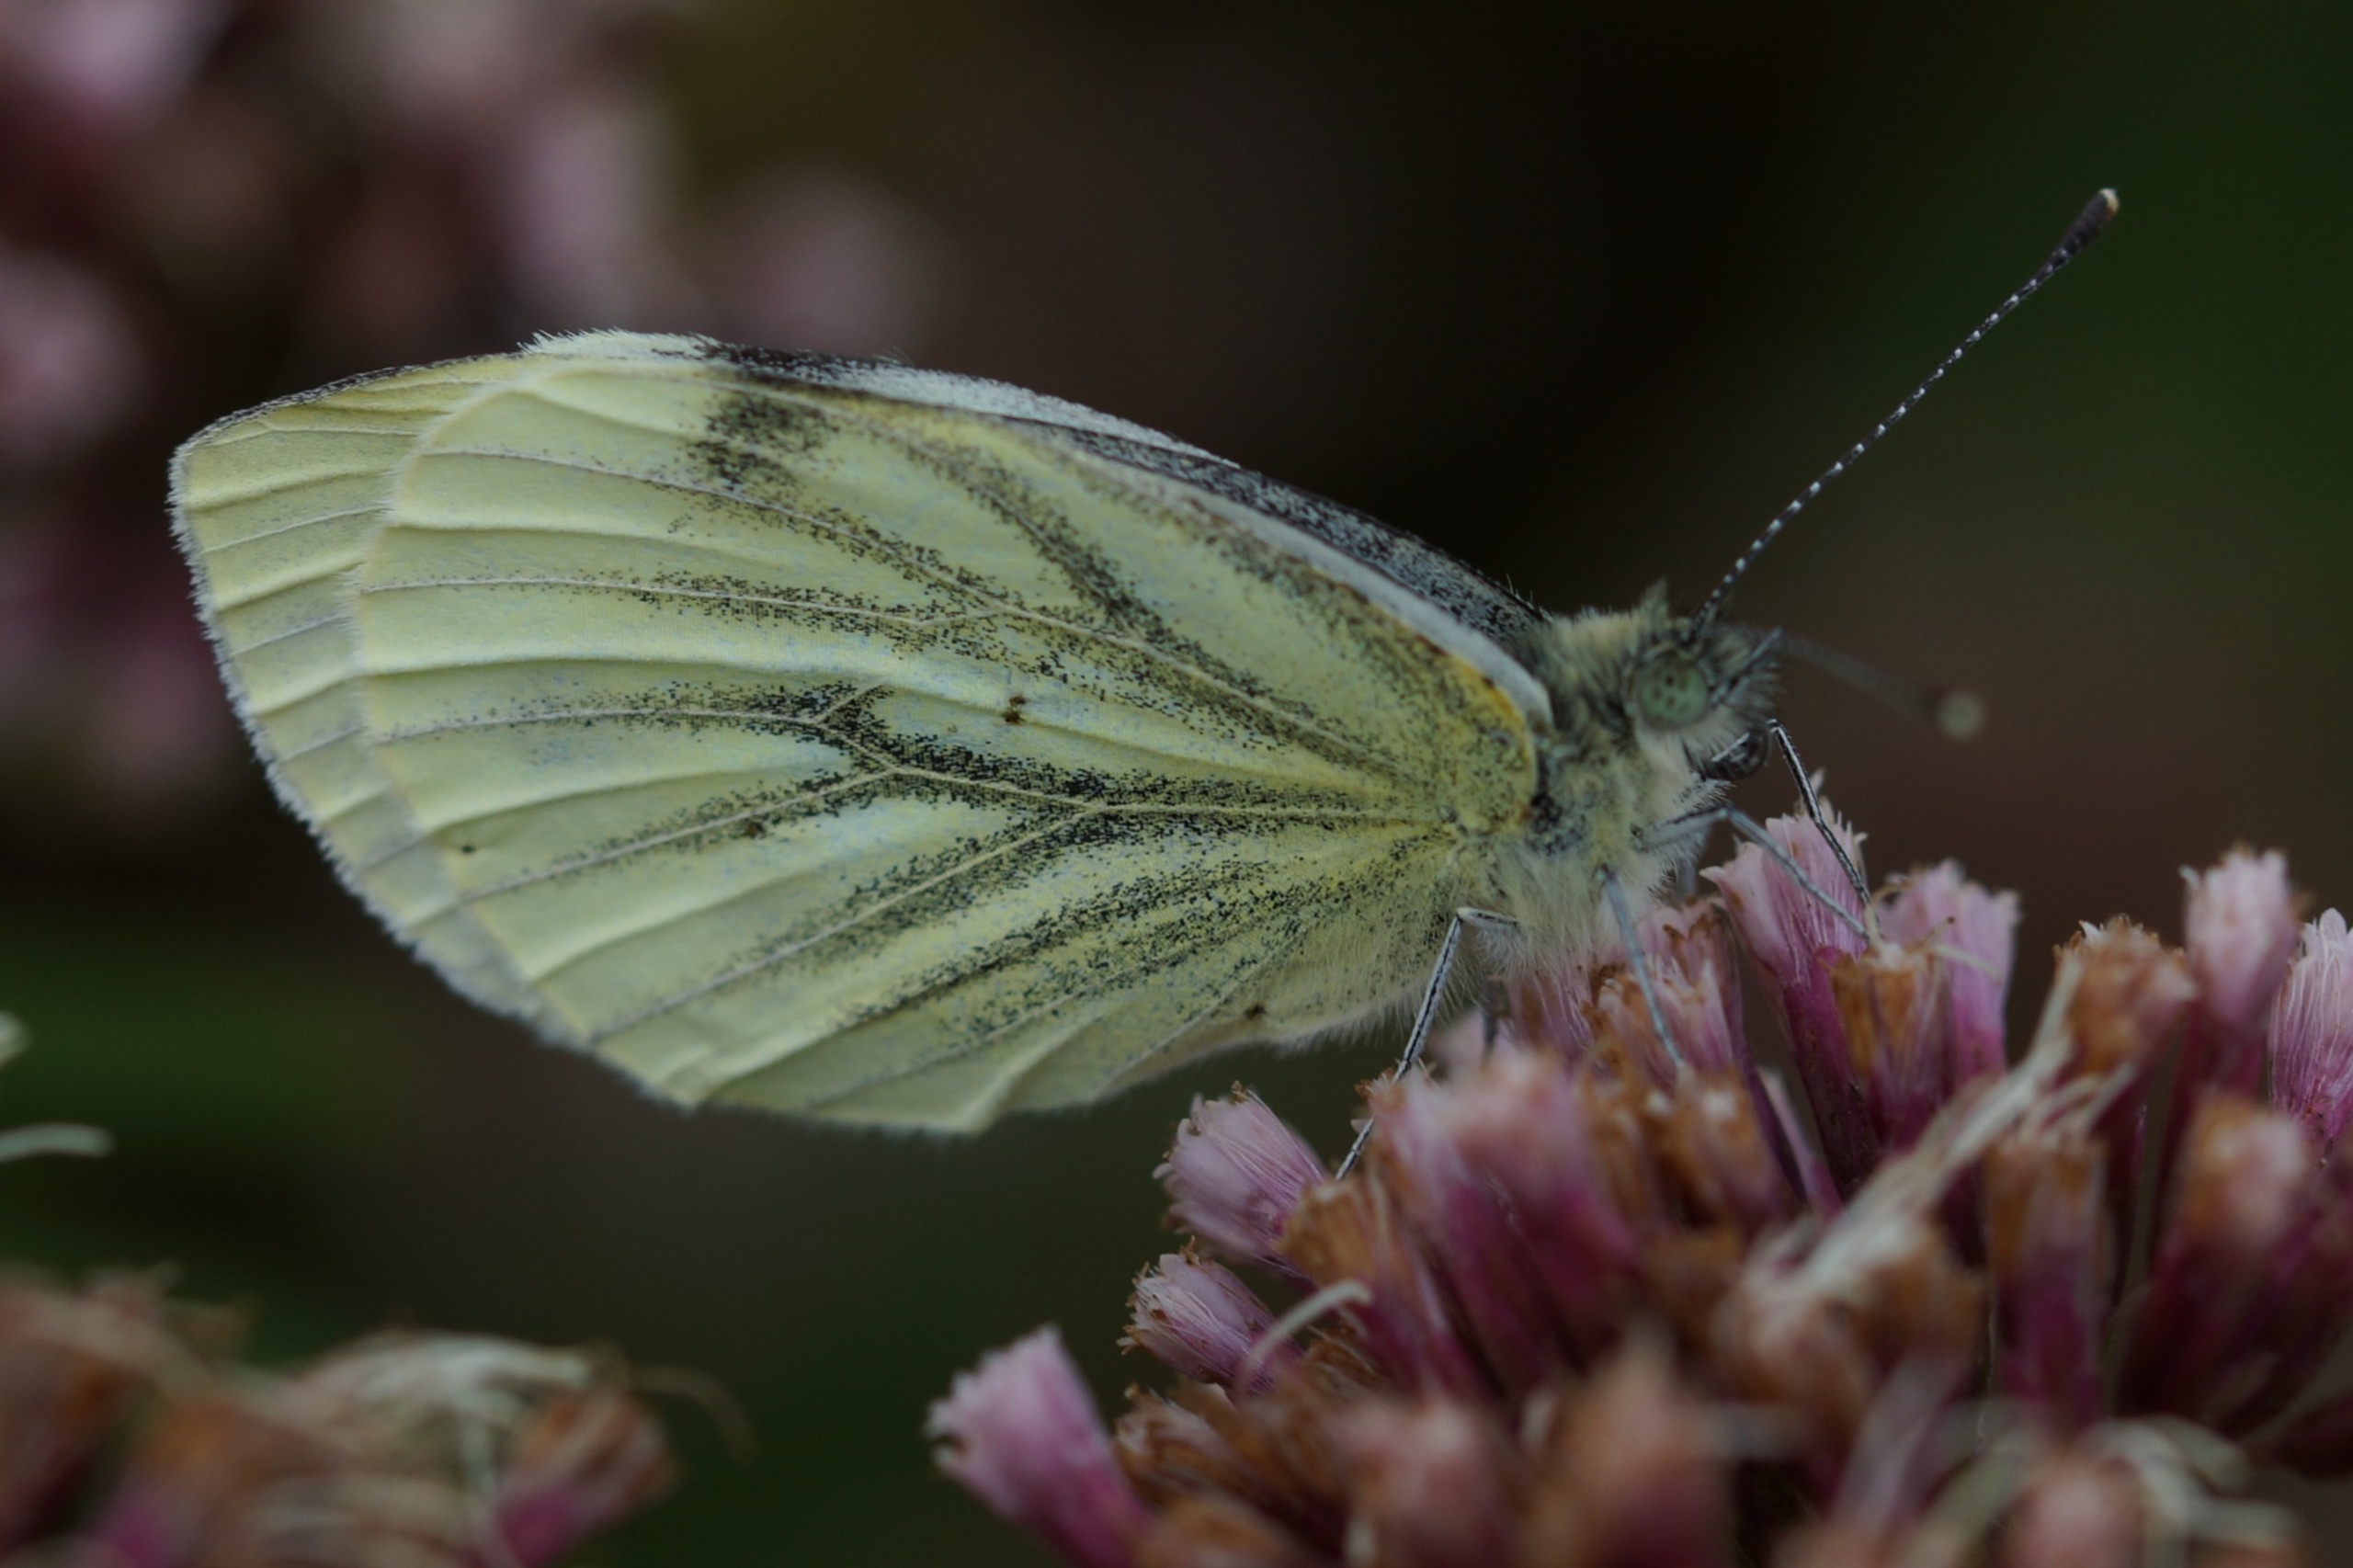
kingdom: Animalia
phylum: Arthropoda
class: Insecta
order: Lepidoptera
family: Pieridae
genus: Pieris
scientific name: Pieris napi
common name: Grønåret kålsommerfugl
